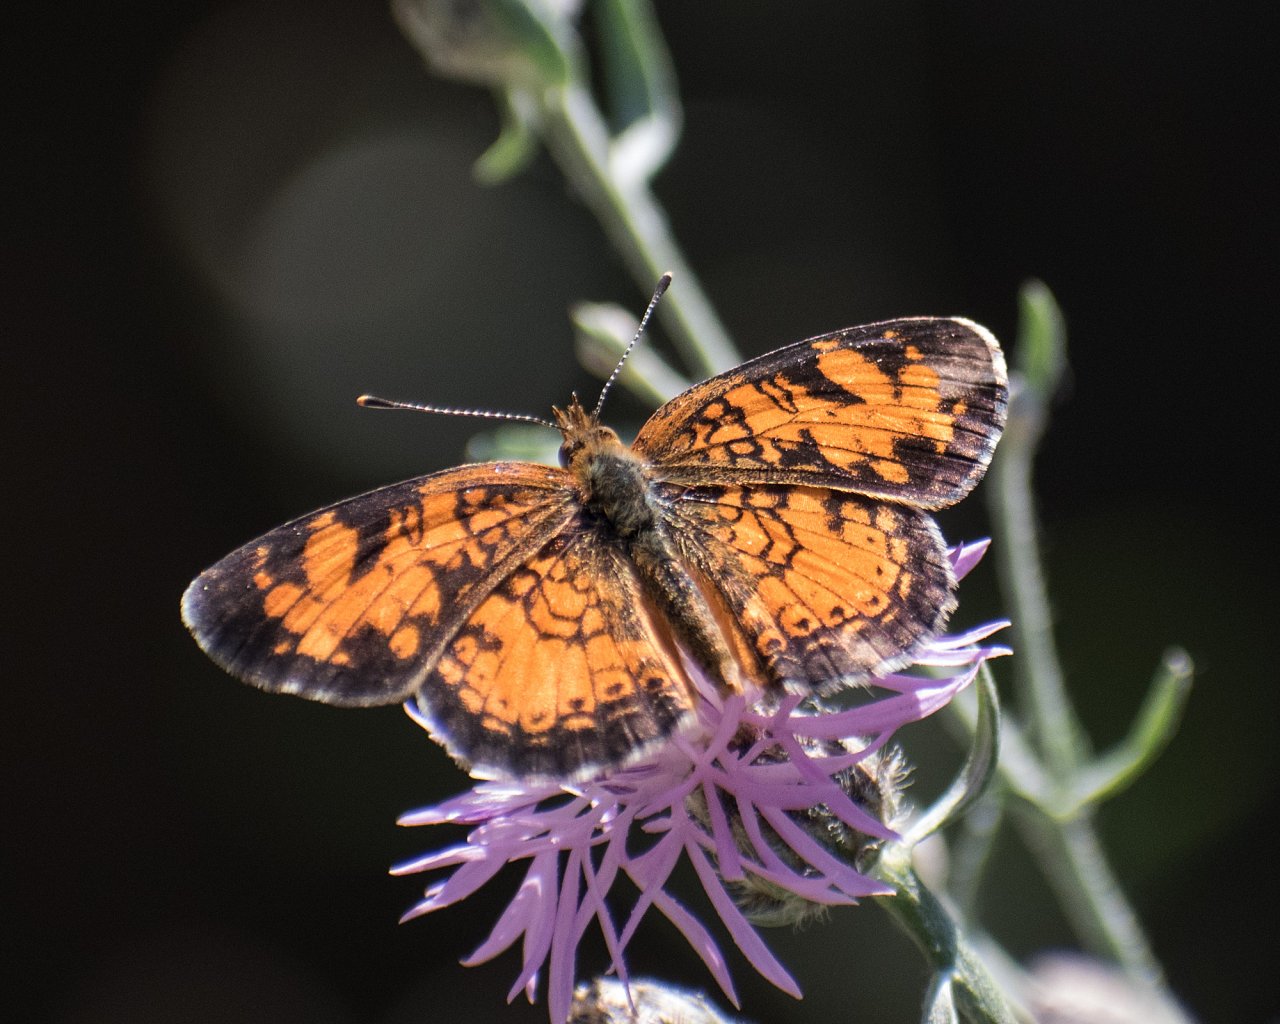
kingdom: Animalia
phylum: Arthropoda
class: Insecta
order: Lepidoptera
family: Nymphalidae
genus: Phyciodes
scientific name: Phyciodes tharos
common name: Northern Crescent
